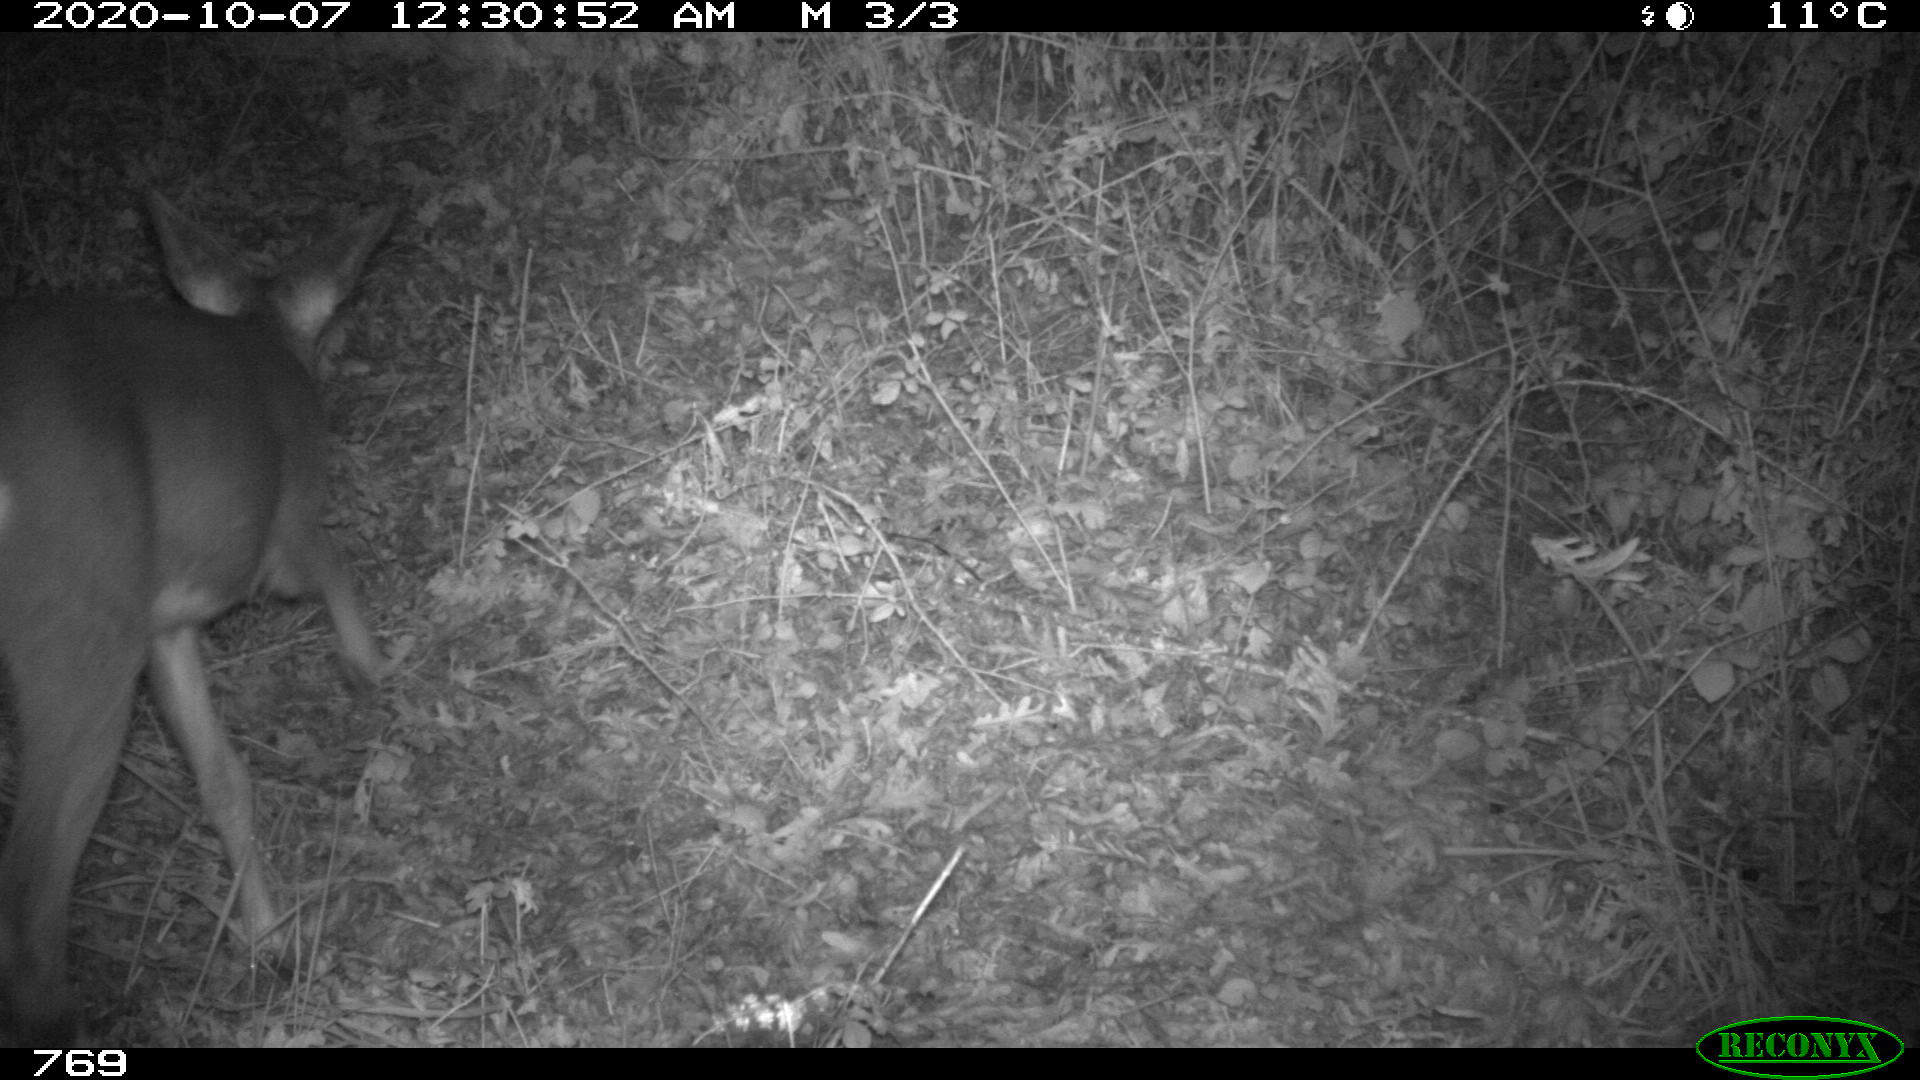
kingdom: Animalia
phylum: Chordata
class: Mammalia
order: Artiodactyla
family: Cervidae
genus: Capreolus
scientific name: Capreolus capreolus
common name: Western roe deer
